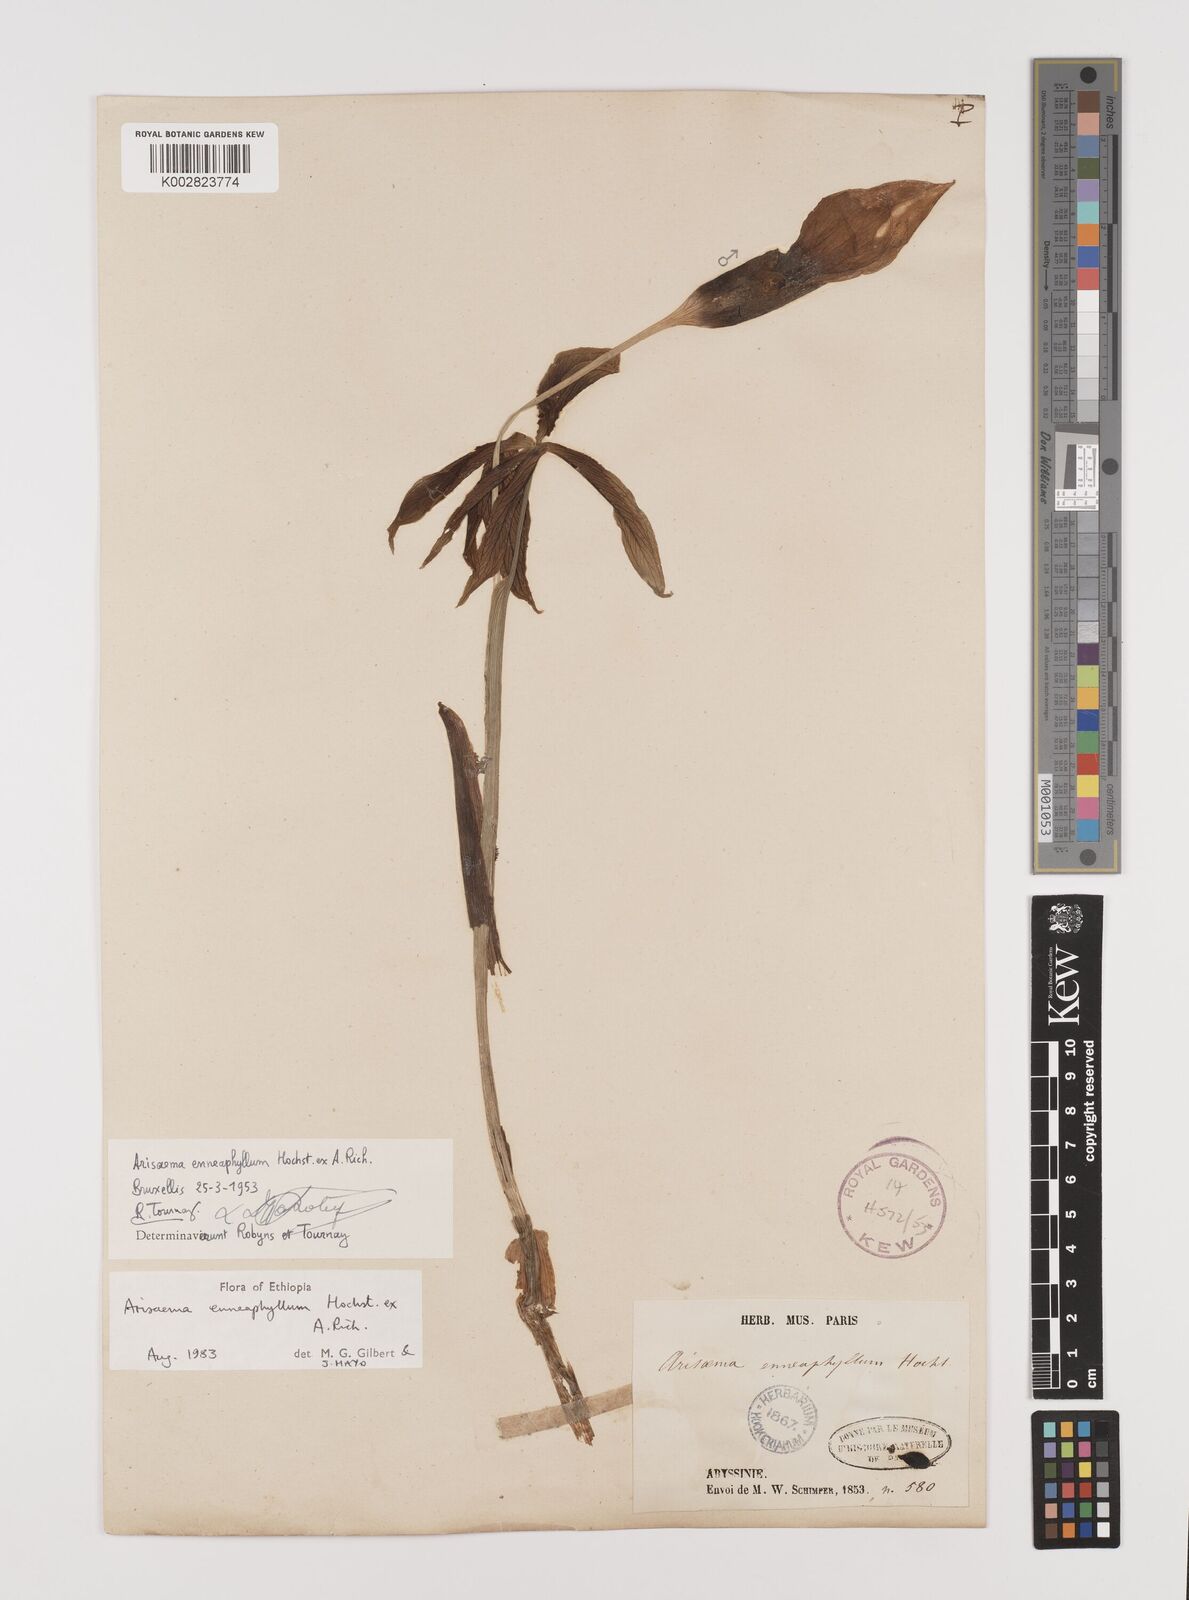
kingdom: Plantae
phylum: Tracheophyta
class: Liliopsida
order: Alismatales
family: Araceae
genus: Arisaema
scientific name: Arisaema enneaphyllum
